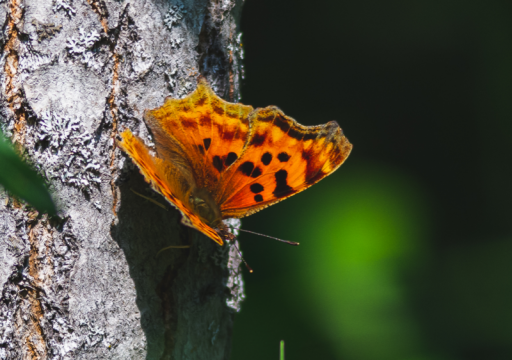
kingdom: Animalia
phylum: Arthropoda
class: Insecta
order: Lepidoptera
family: Nymphalidae
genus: Polygonia
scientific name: Polygonia satyrus
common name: Satyr Comma
